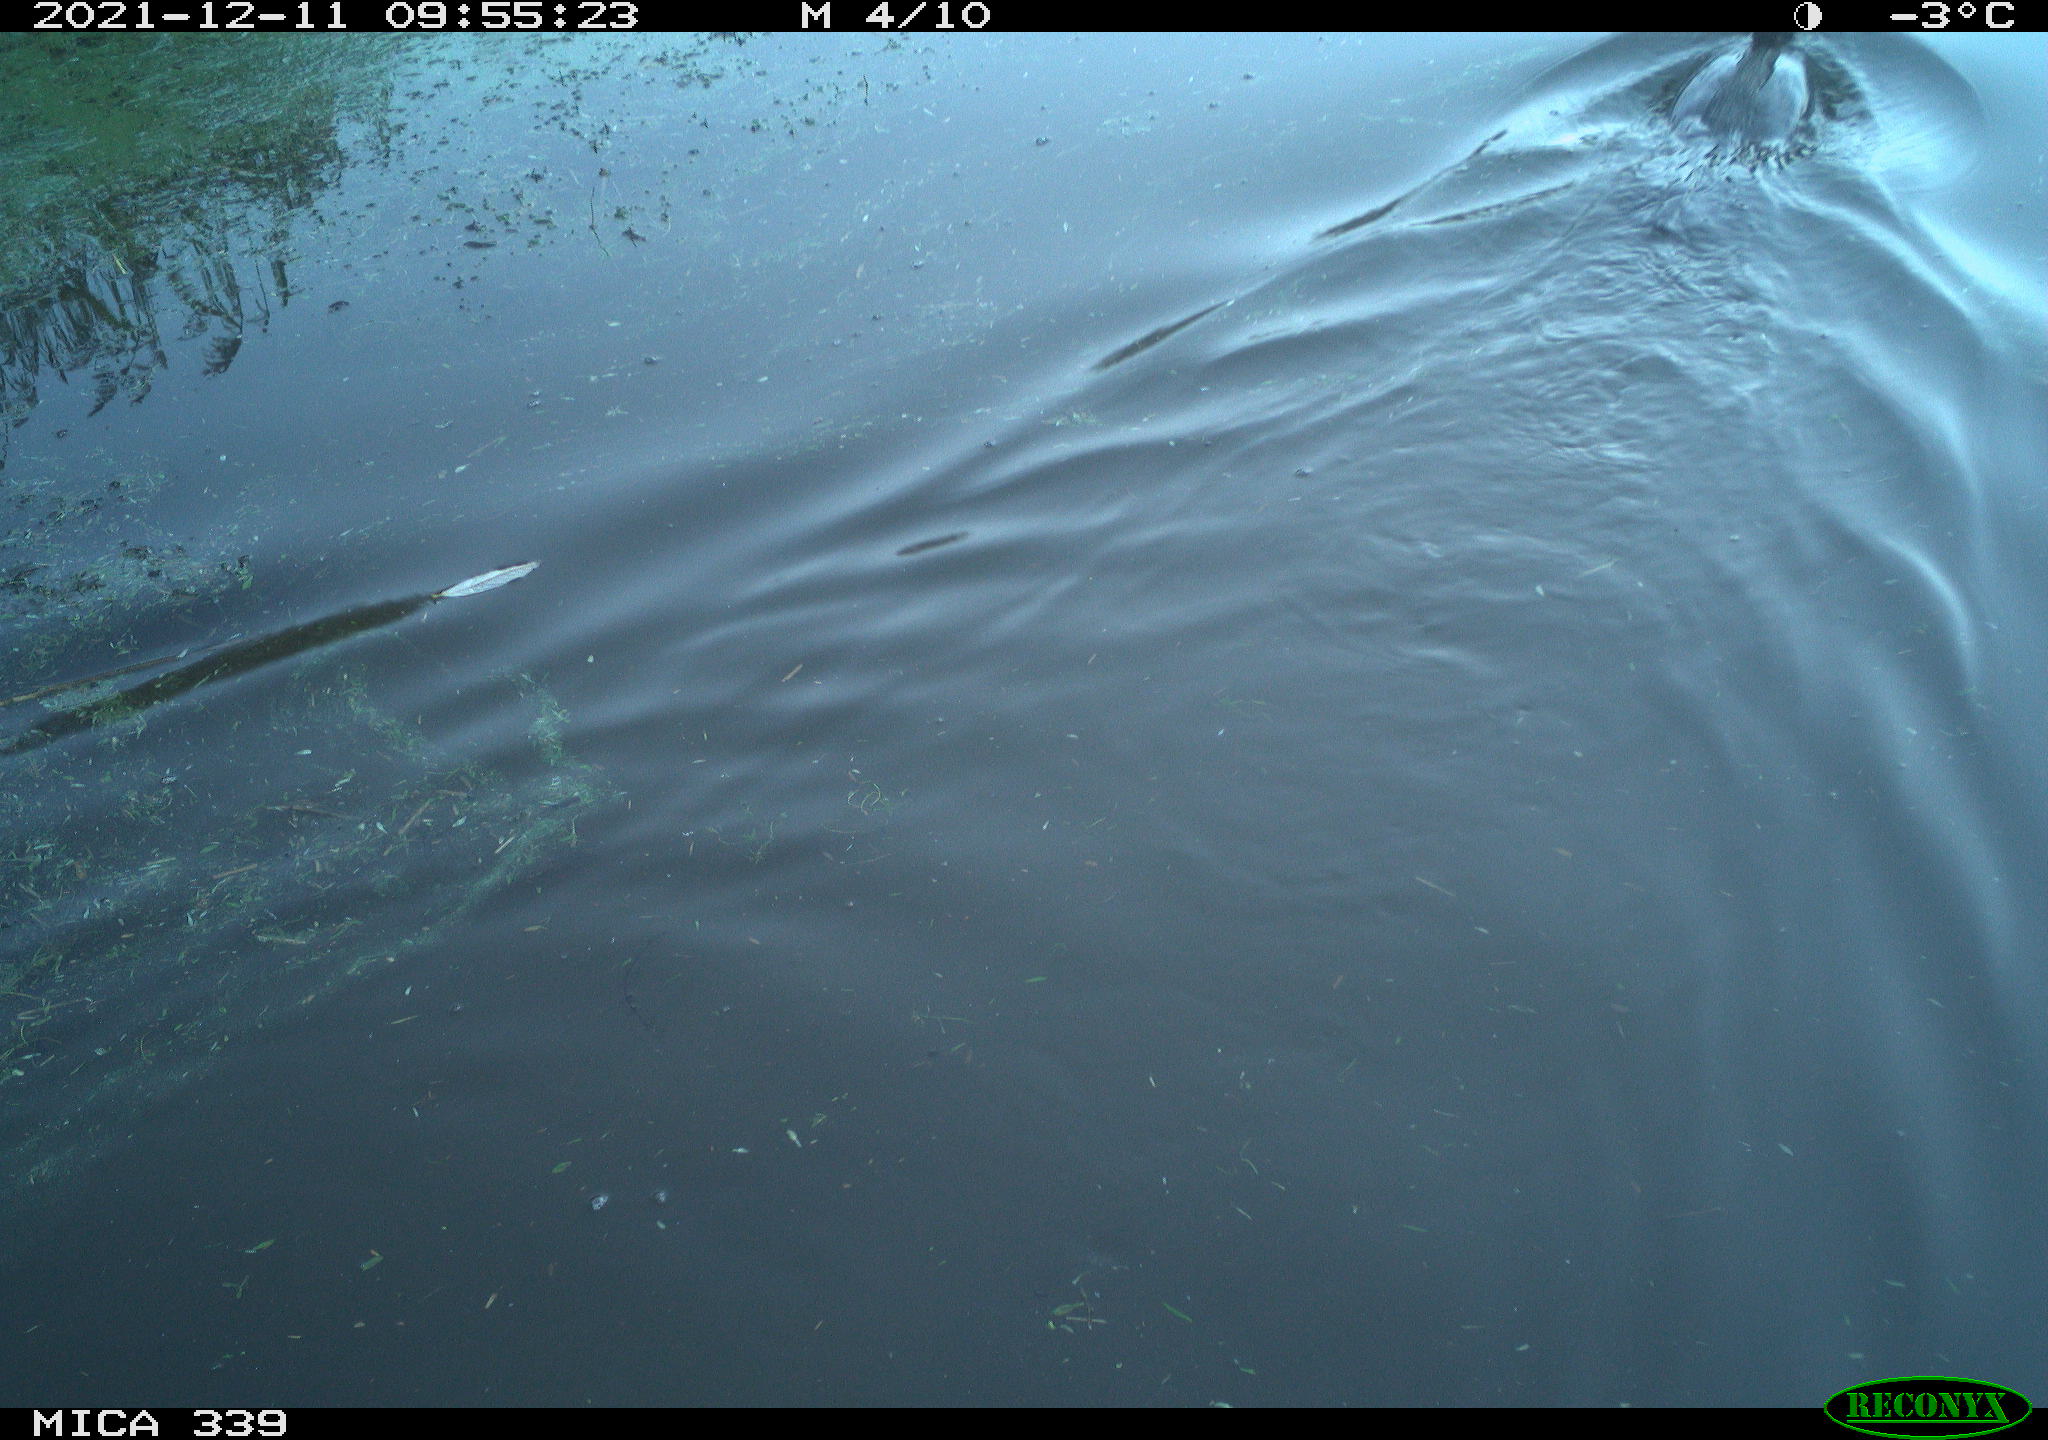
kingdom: Animalia
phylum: Chordata
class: Aves
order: Suliformes
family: Phalacrocoracidae
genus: Phalacrocorax
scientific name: Phalacrocorax carbo
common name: Great cormorant
